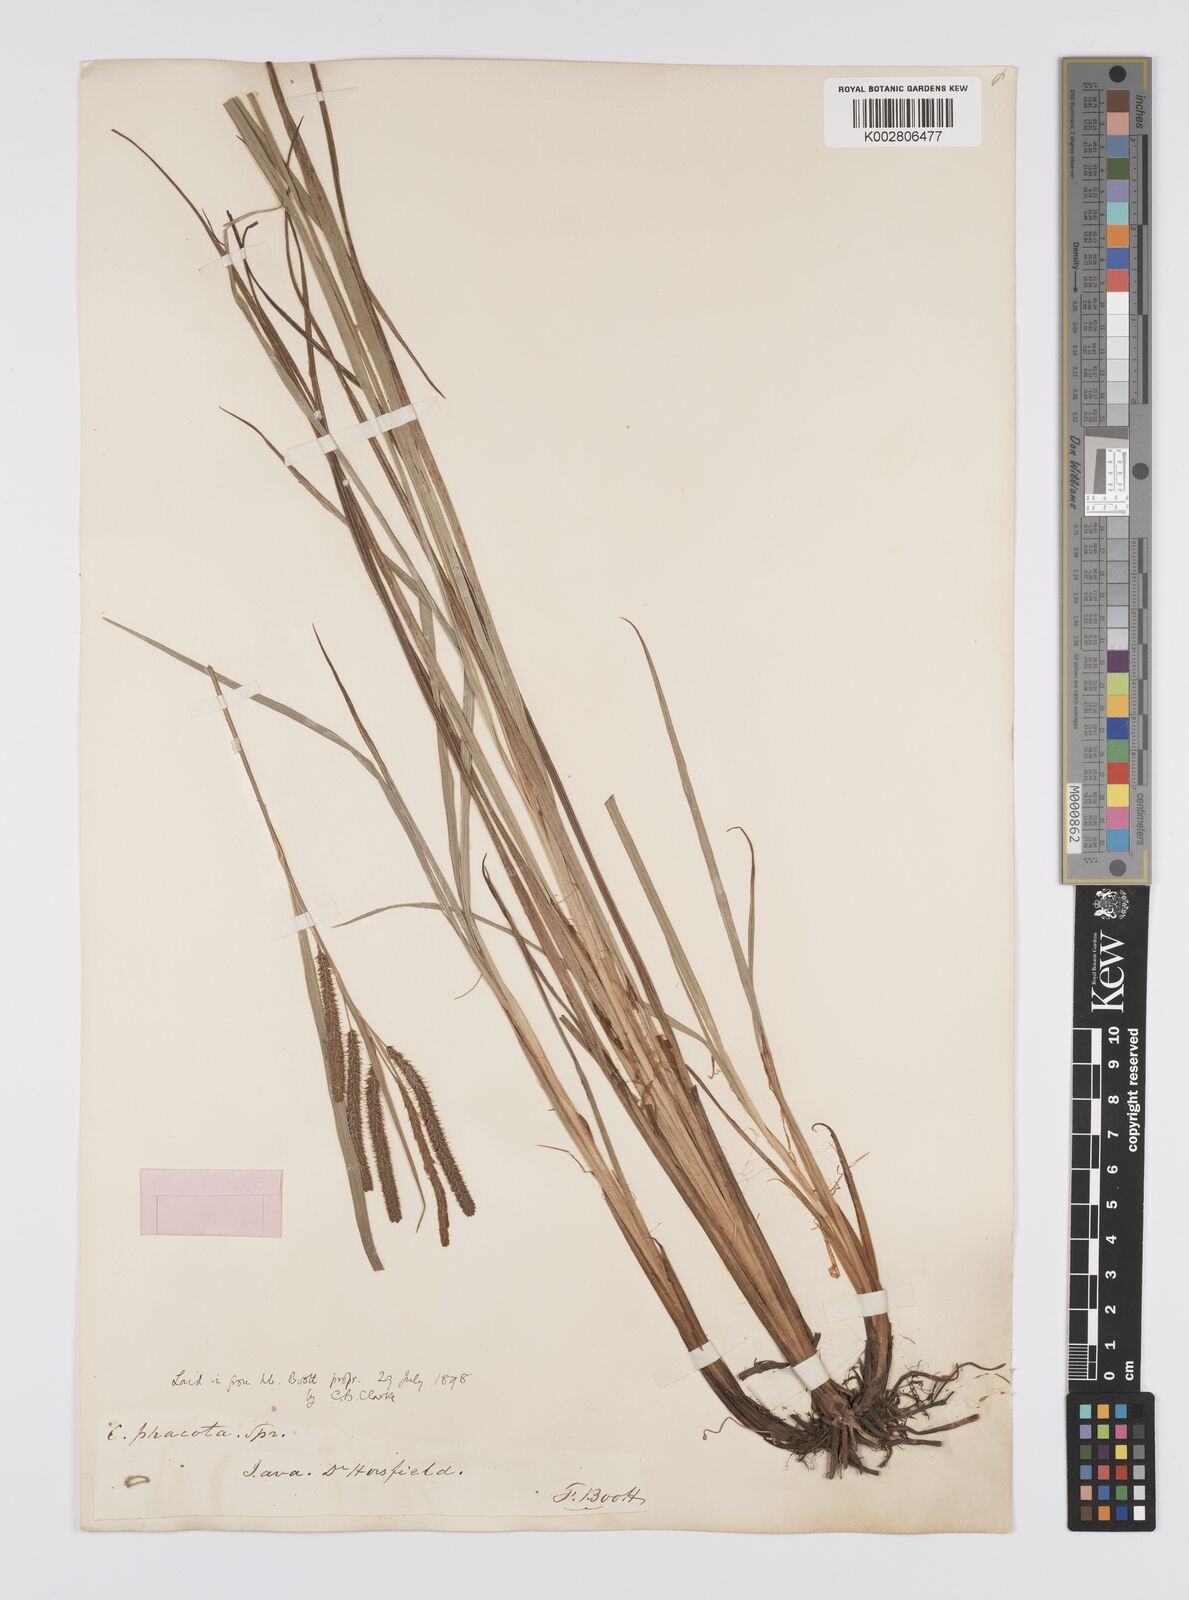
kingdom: Plantae
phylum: Tracheophyta
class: Liliopsida
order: Poales
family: Cyperaceae
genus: Carex
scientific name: Carex phacota
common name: Lakeshore sedge
